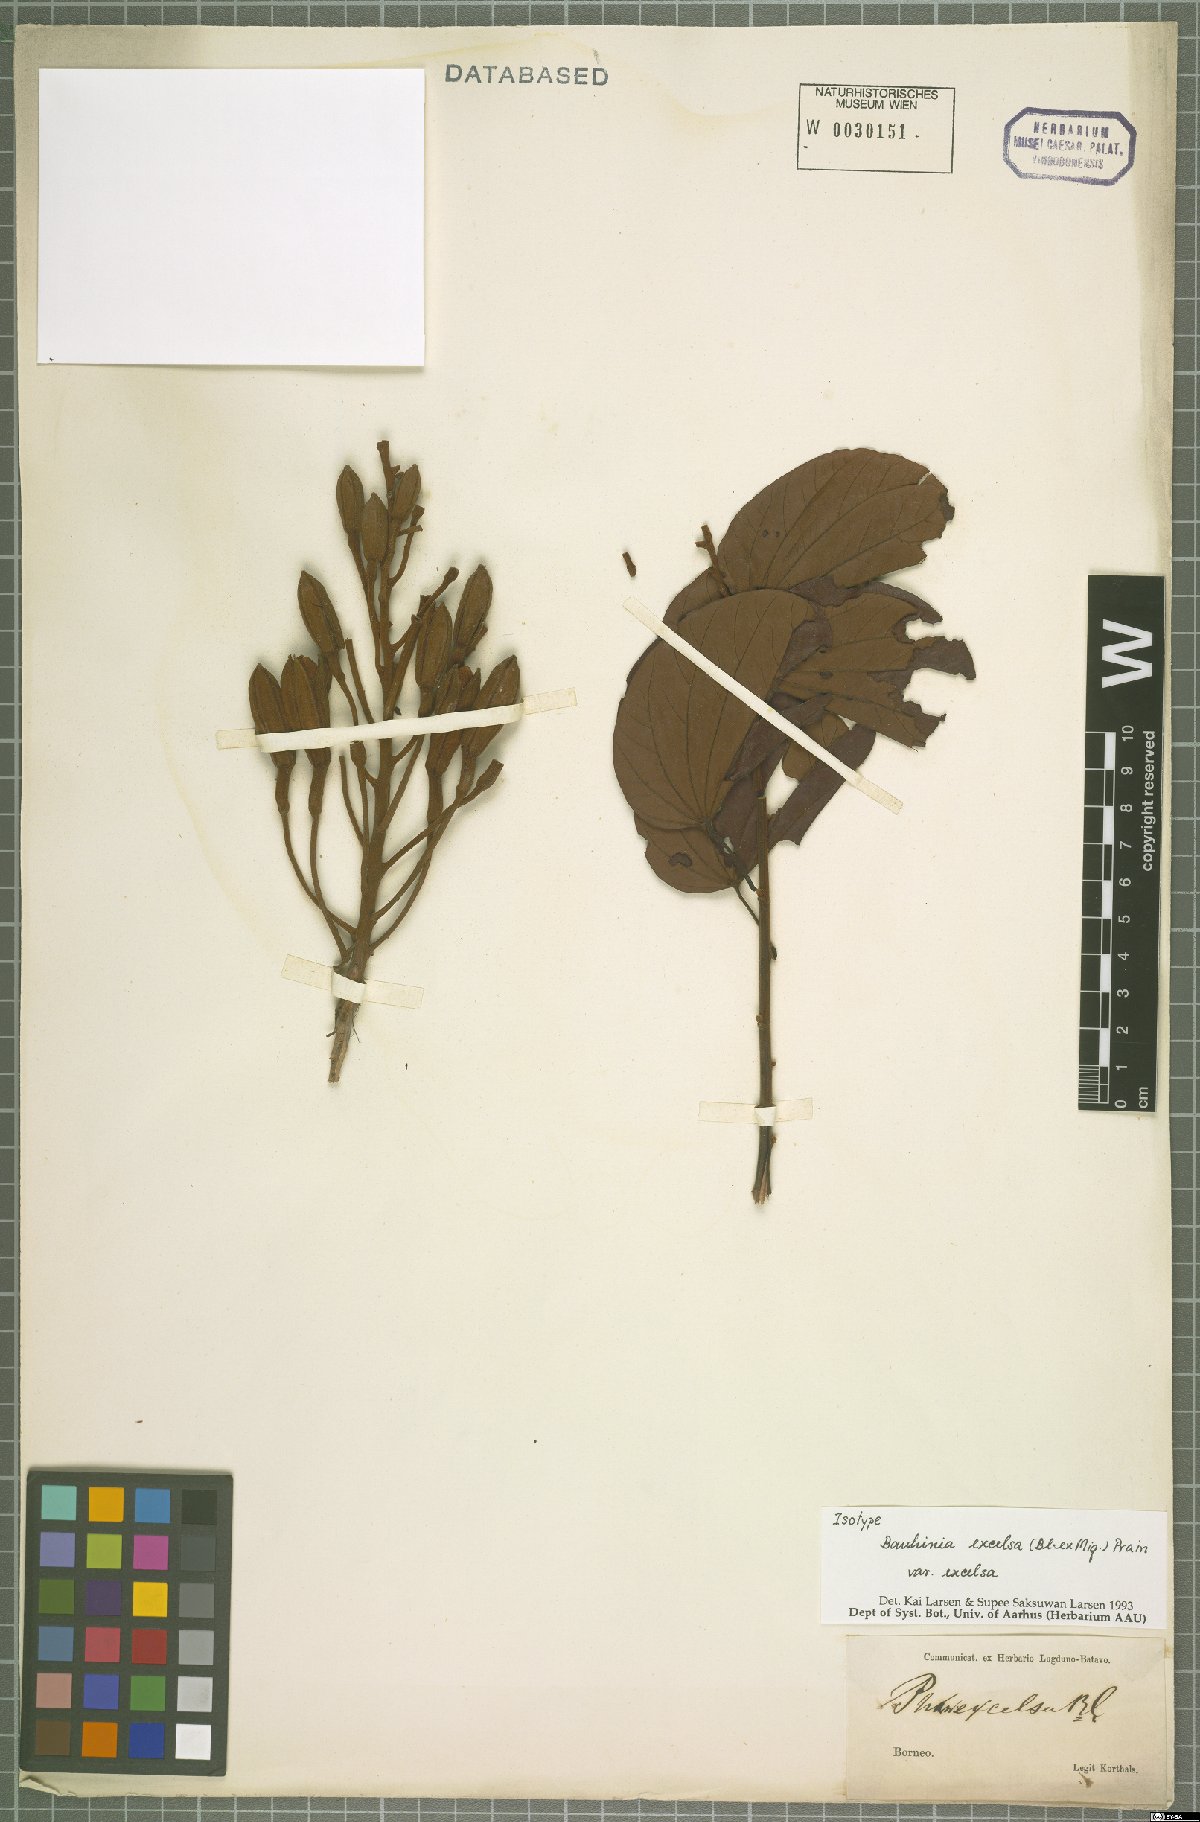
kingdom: Plantae
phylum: Tracheophyta
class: Magnoliopsida
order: Fabales
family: Fabaceae
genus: Phanera
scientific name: Phanera excelsa
